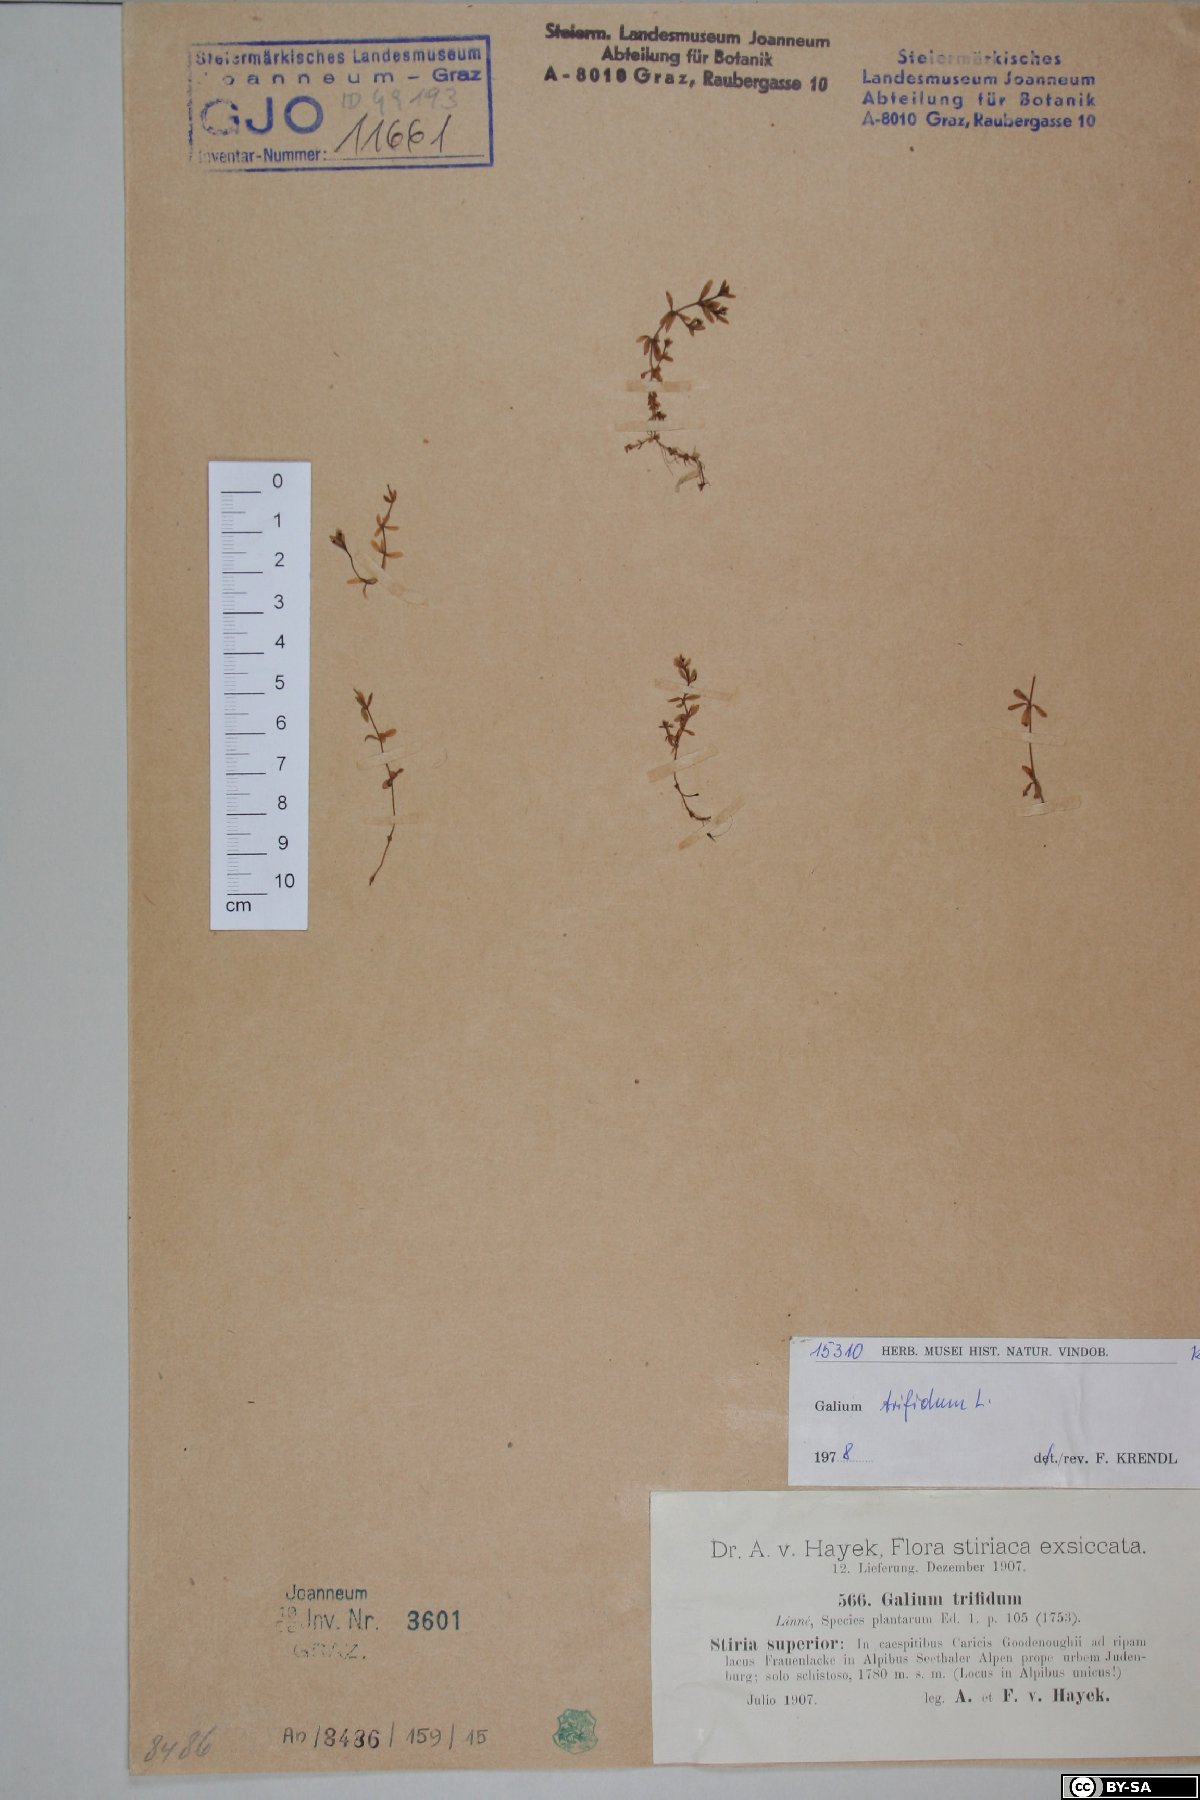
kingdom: Plantae
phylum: Tracheophyta
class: Magnoliopsida
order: Gentianales
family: Rubiaceae
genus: Galium
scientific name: Galium trifidum
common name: Small bedstraw
